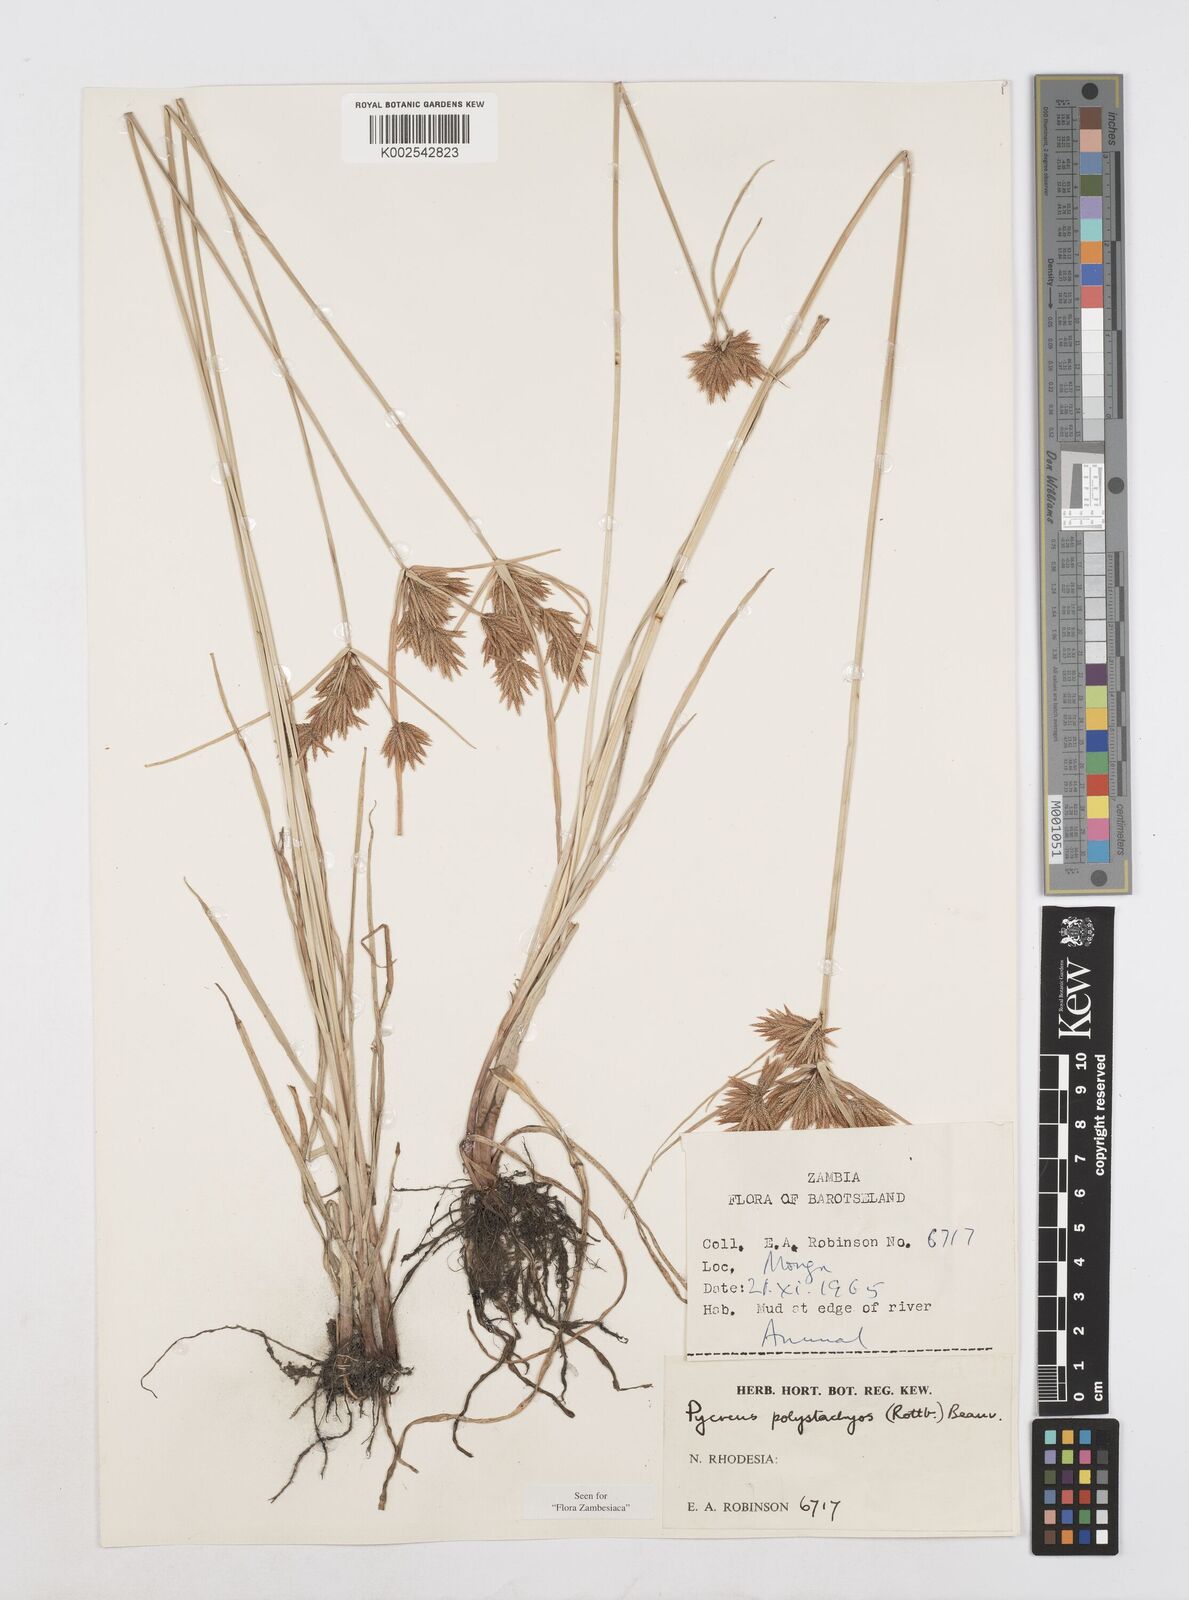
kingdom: Plantae
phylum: Tracheophyta
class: Liliopsida
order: Poales
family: Cyperaceae
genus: Cyperus
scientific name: Cyperus polystachyos
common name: Bunchy flat sedge
